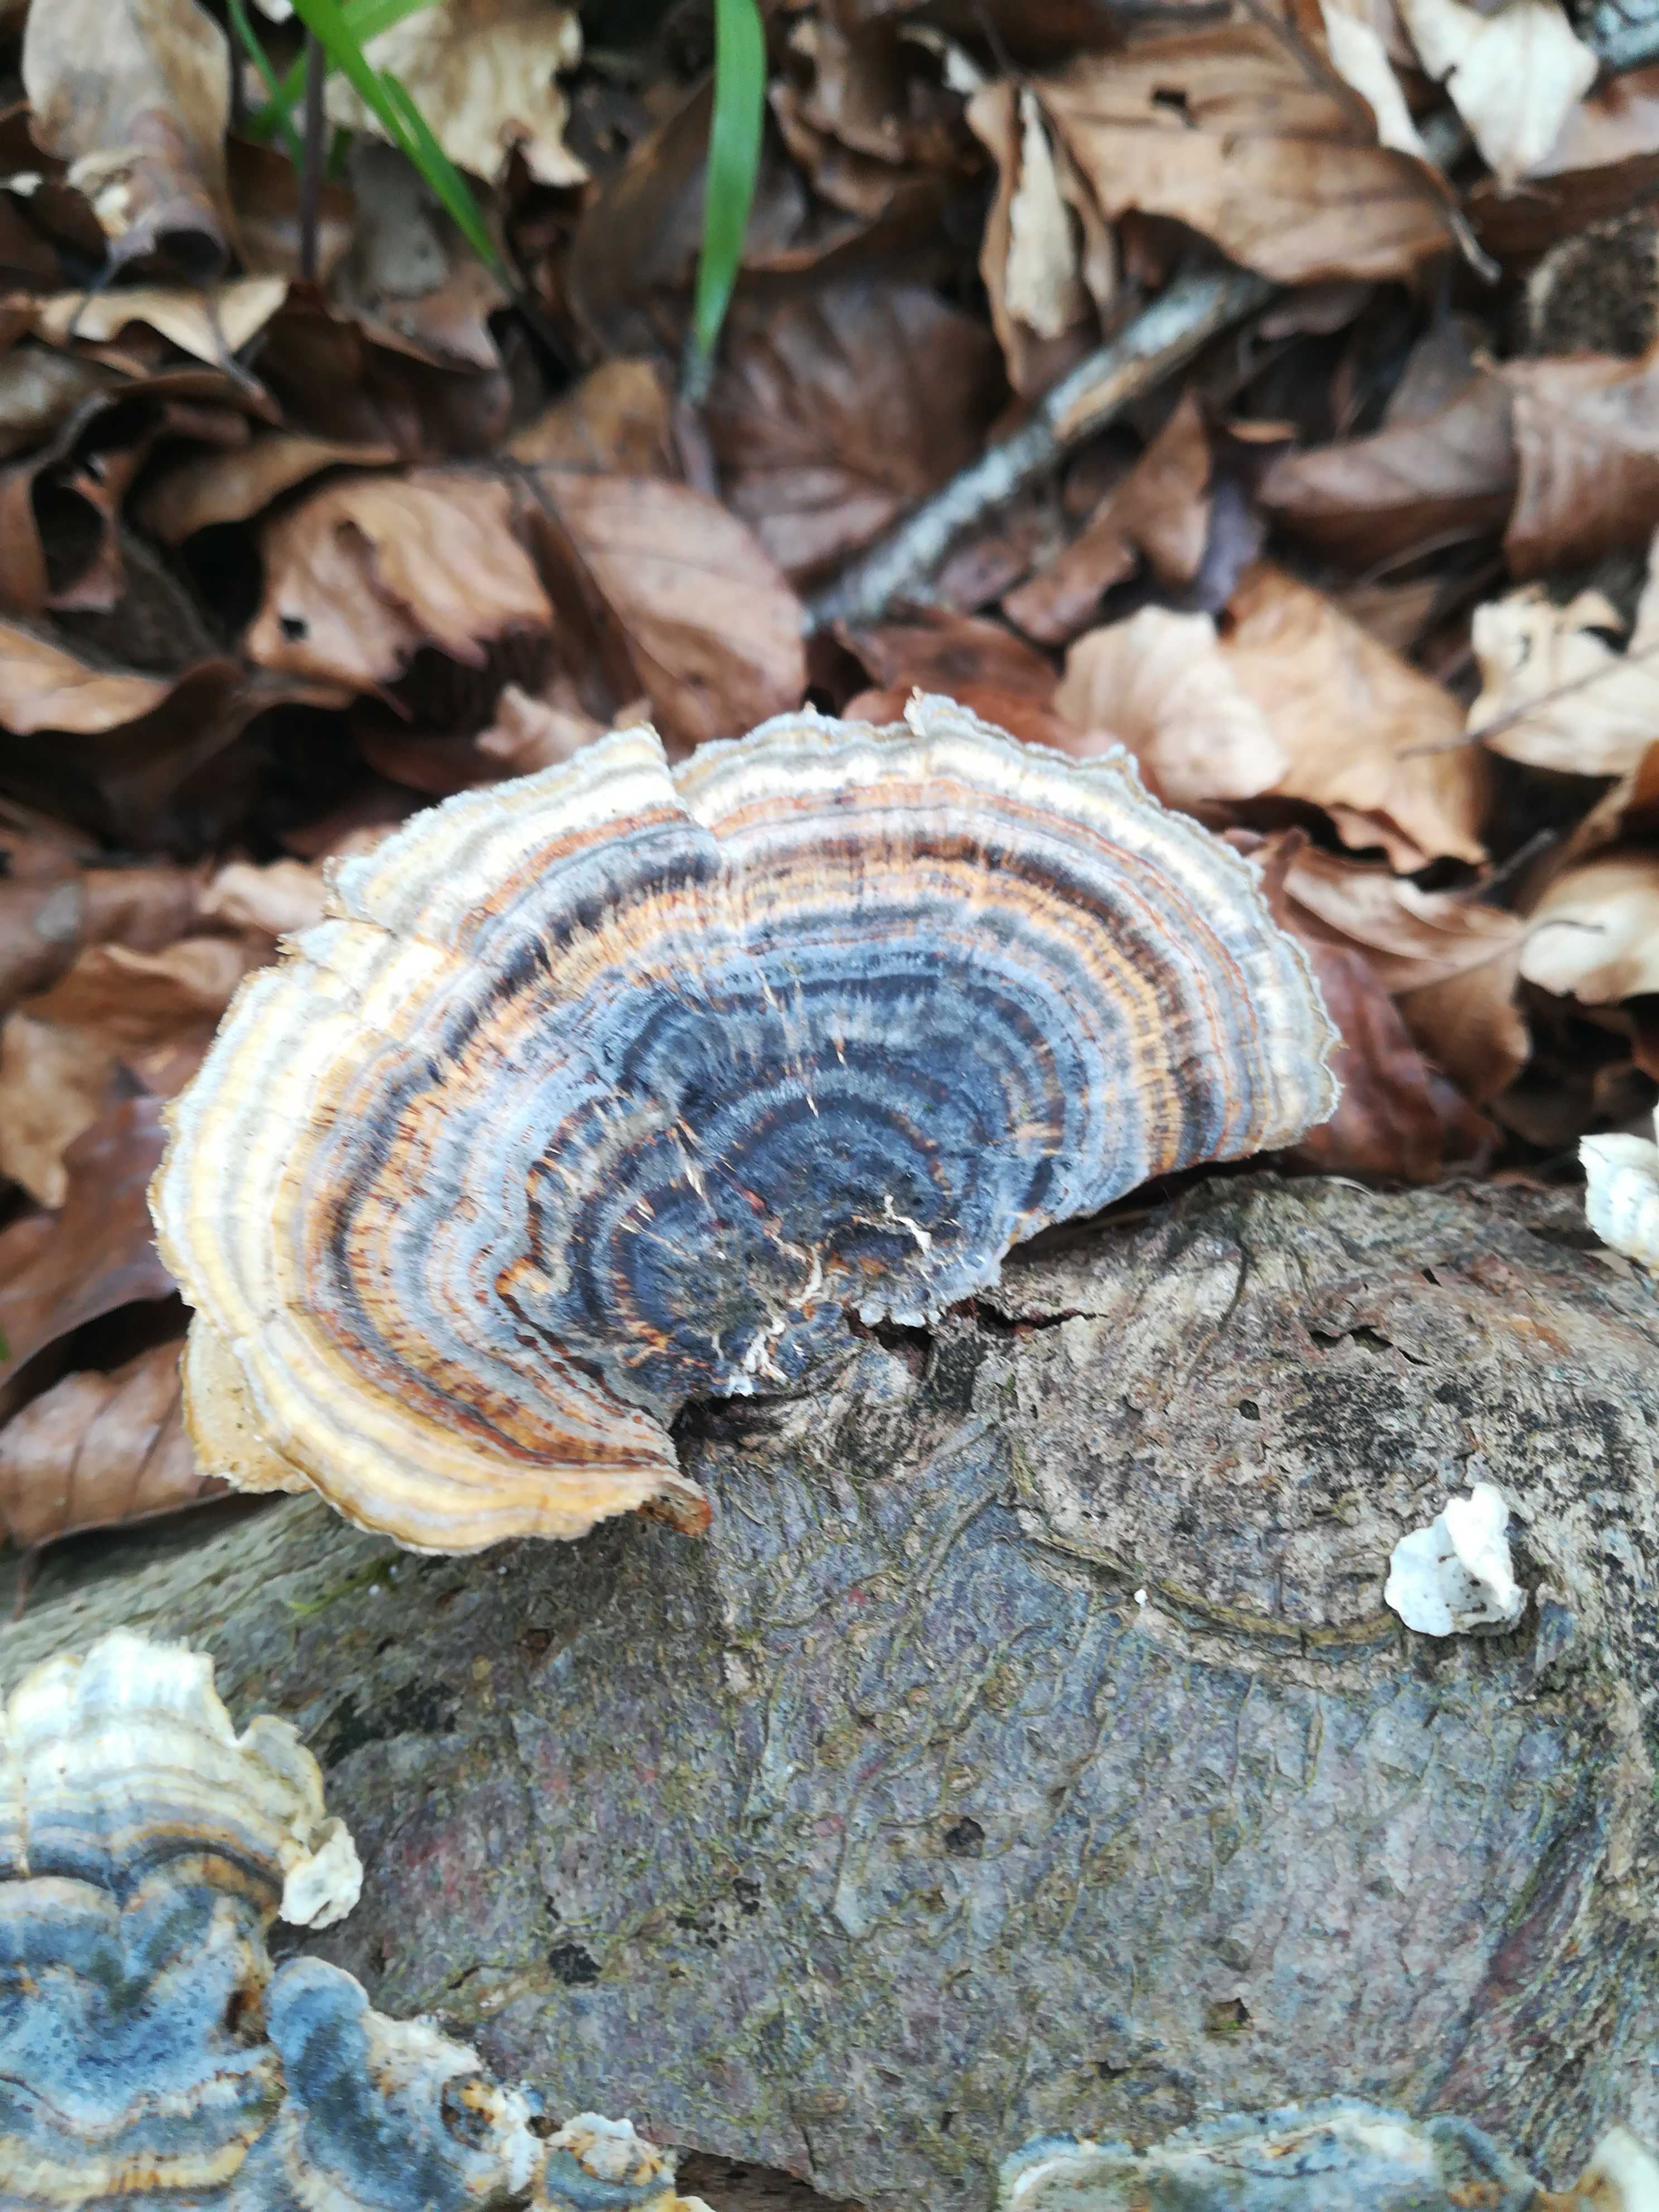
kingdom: Fungi
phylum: Basidiomycota
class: Agaricomycetes
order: Polyporales
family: Polyporaceae
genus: Trametes
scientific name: Trametes versicolor
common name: broget læderporesvamp
